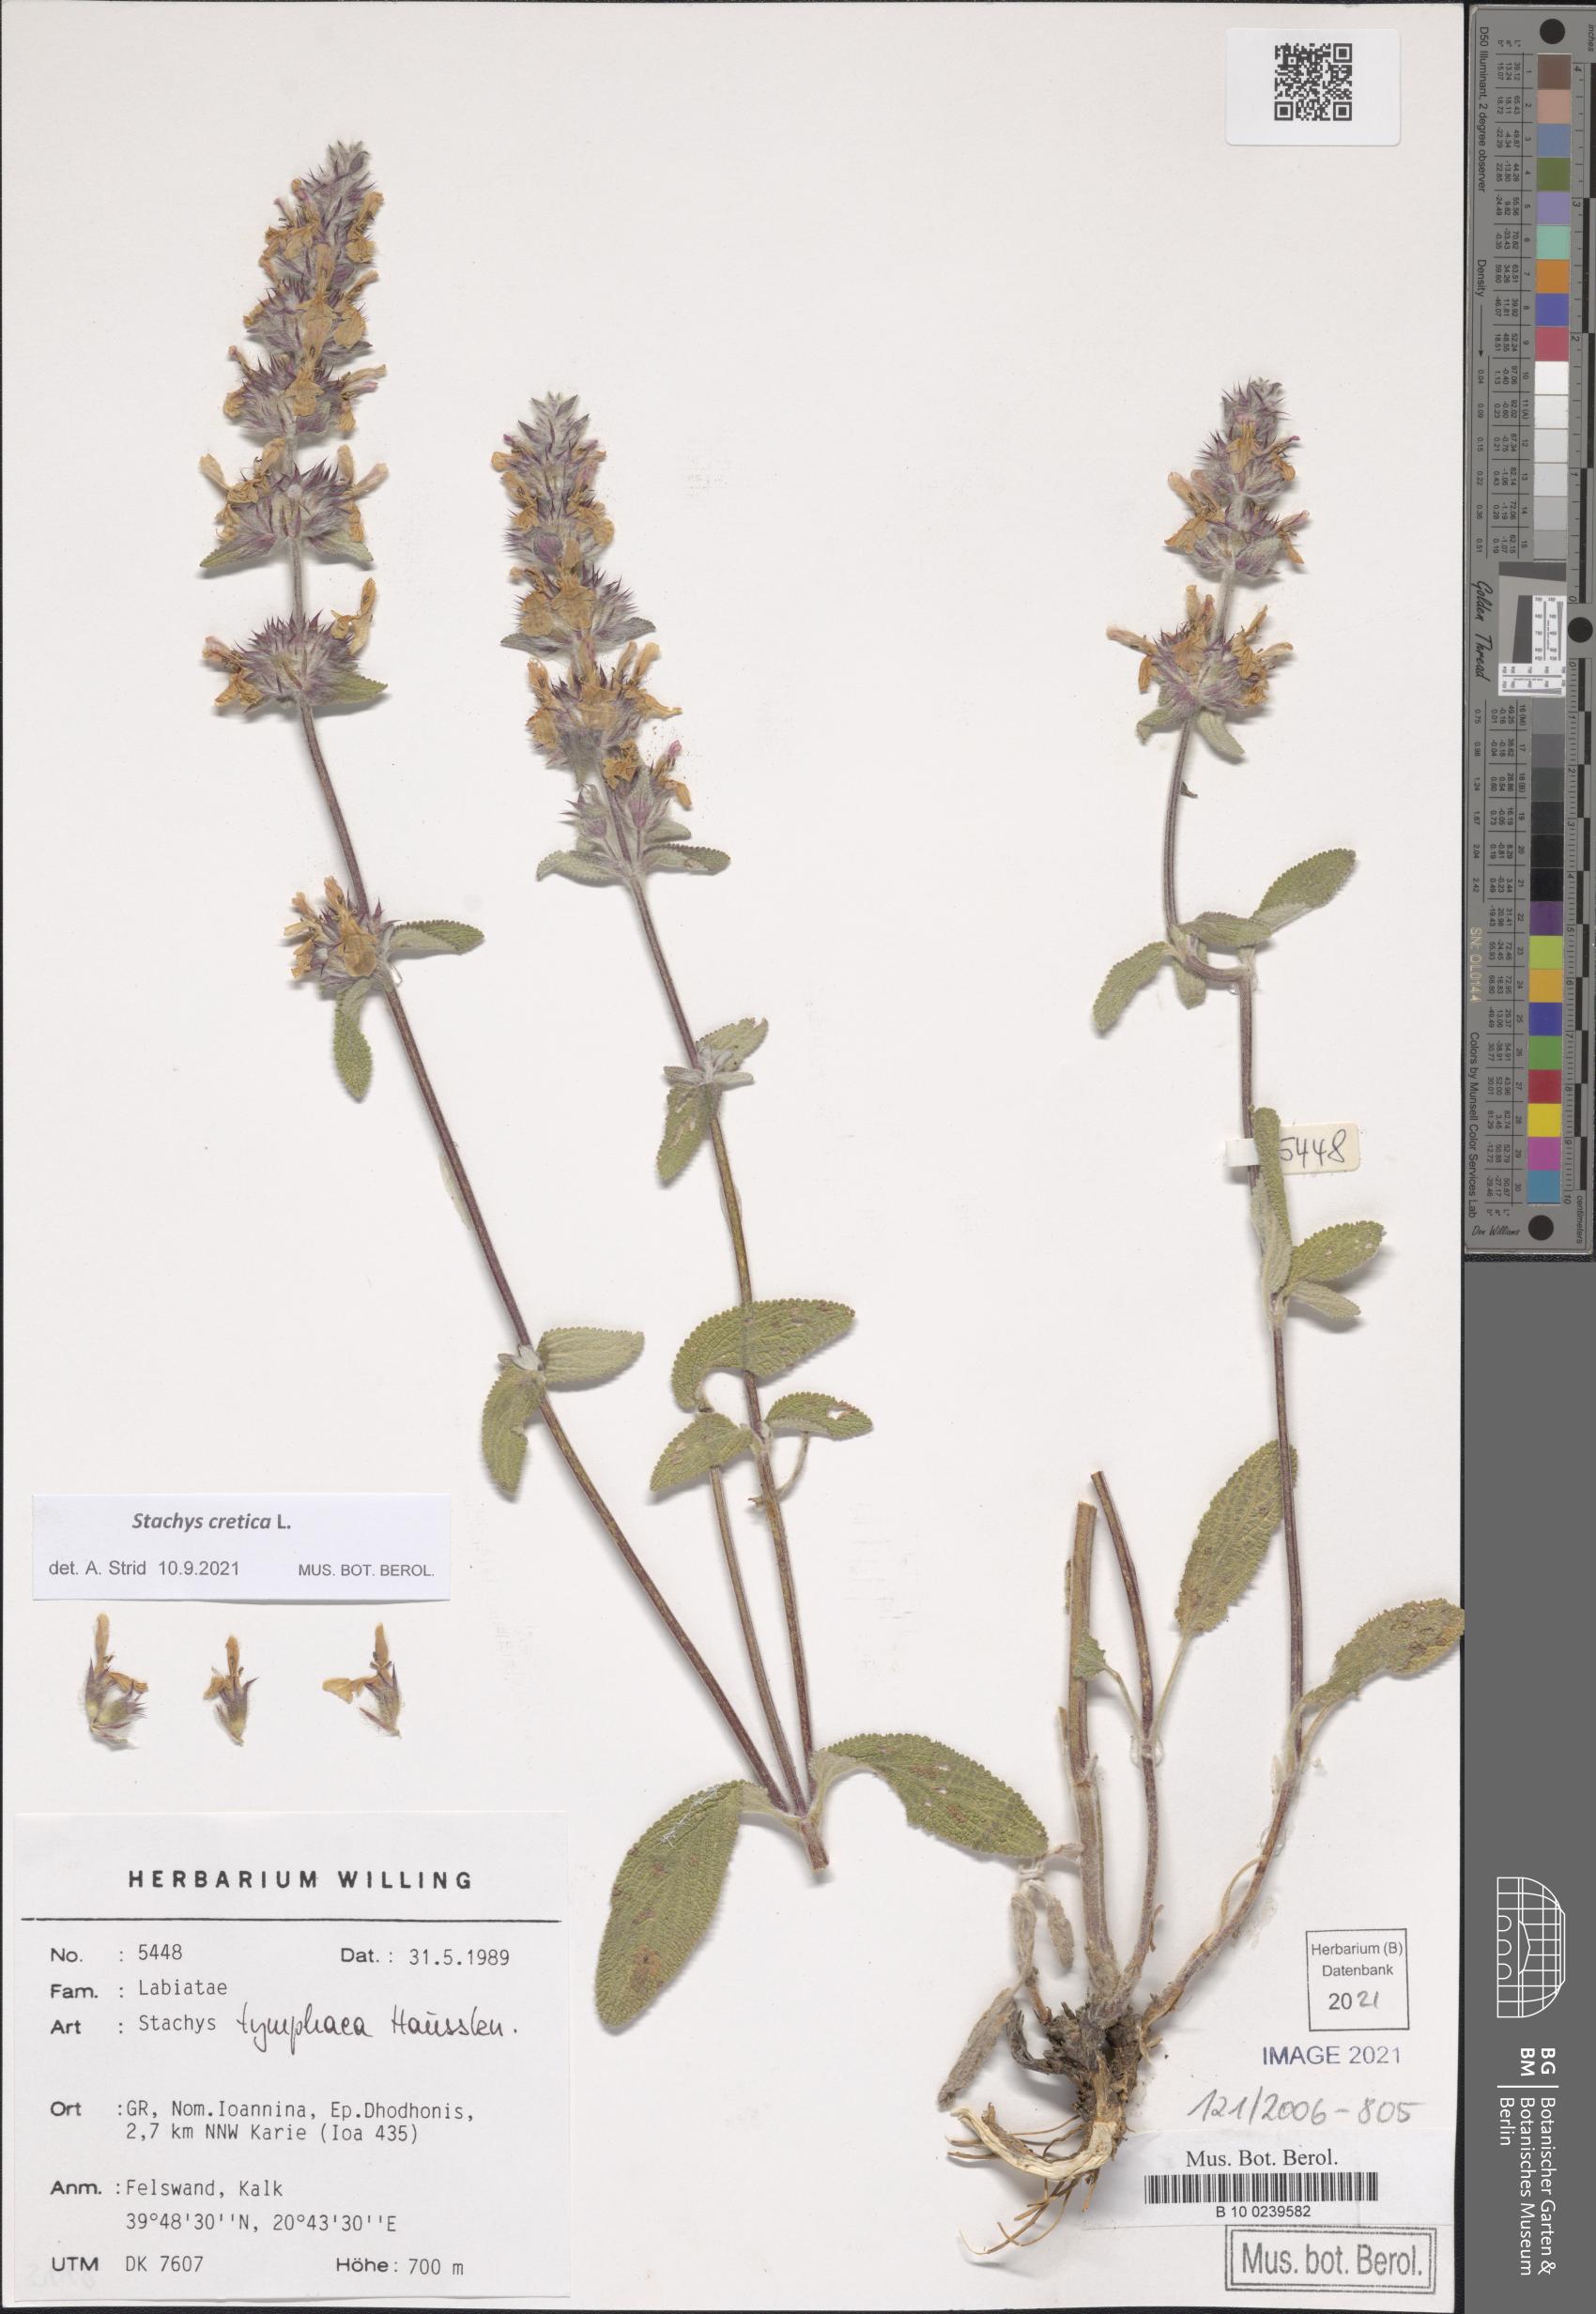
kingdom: Plantae
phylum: Tracheophyta
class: Magnoliopsida
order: Lamiales
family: Lamiaceae
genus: Stachys
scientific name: Stachys cretica
